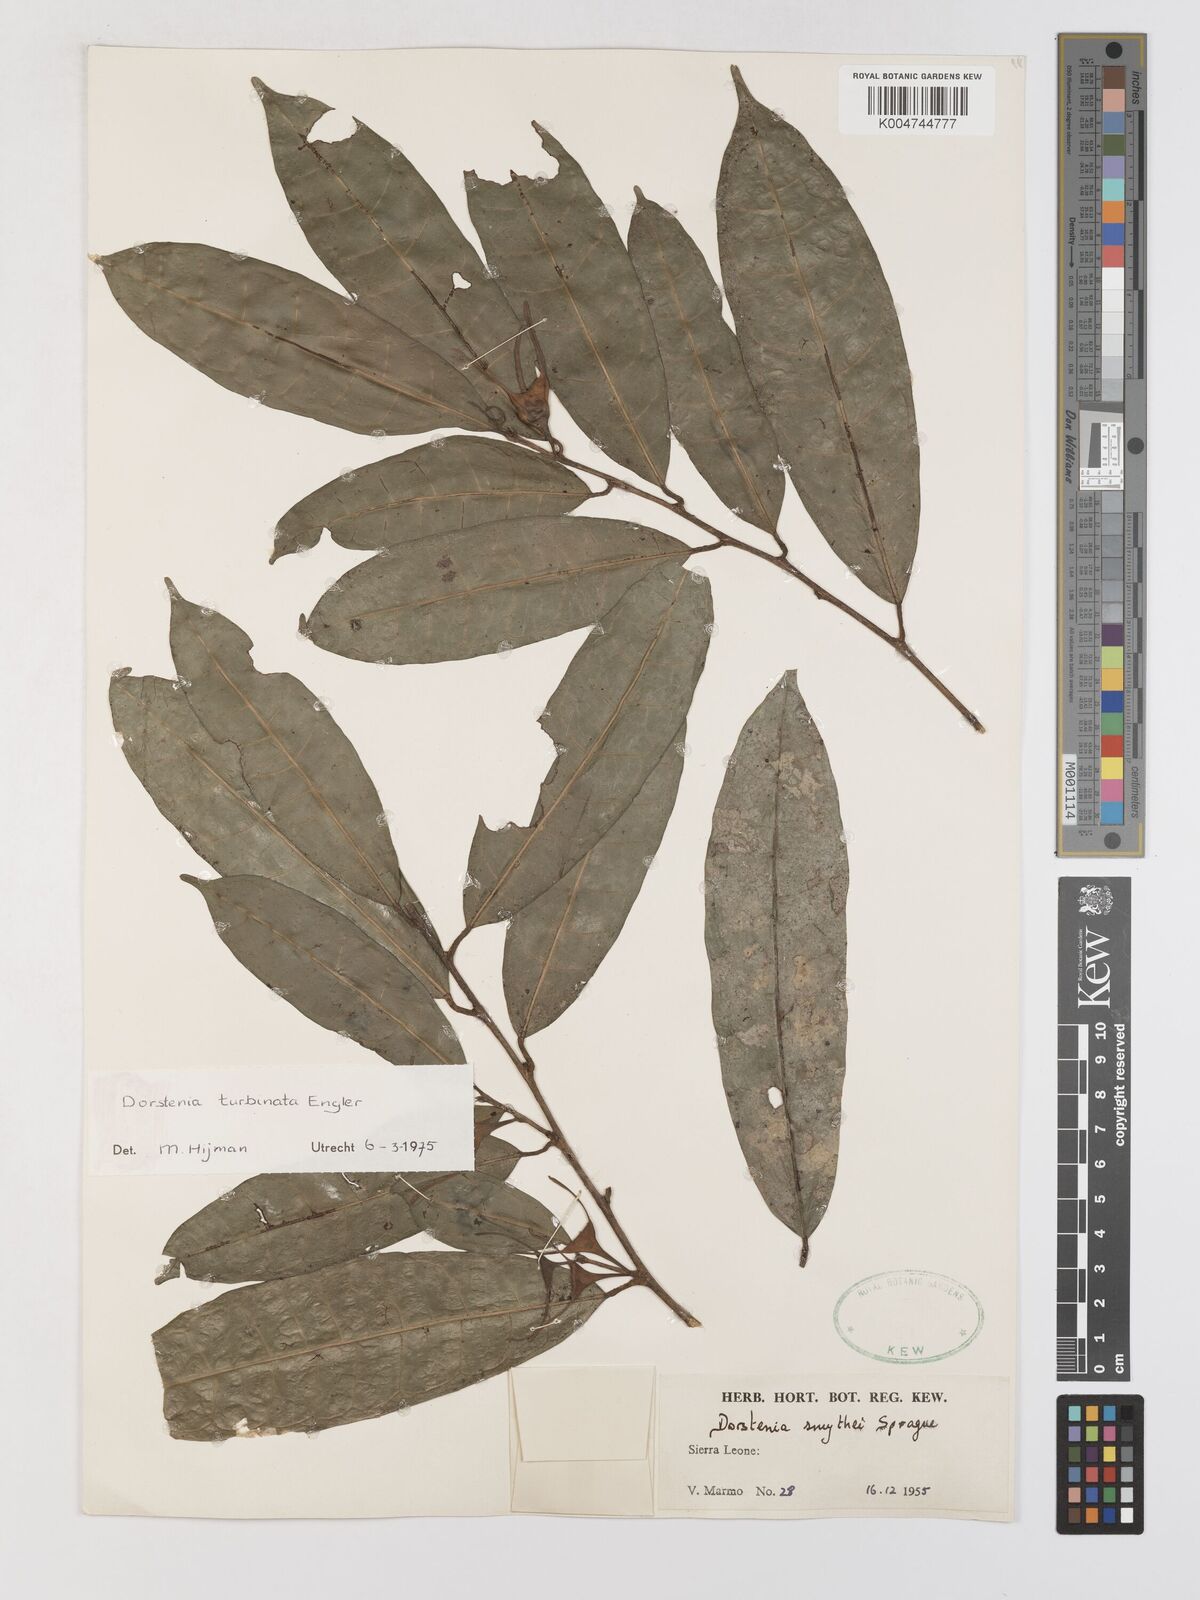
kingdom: Plantae
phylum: Tracheophyta
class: Magnoliopsida
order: Rosales
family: Moraceae
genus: Hijmania
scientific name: Hijmania turbinata
